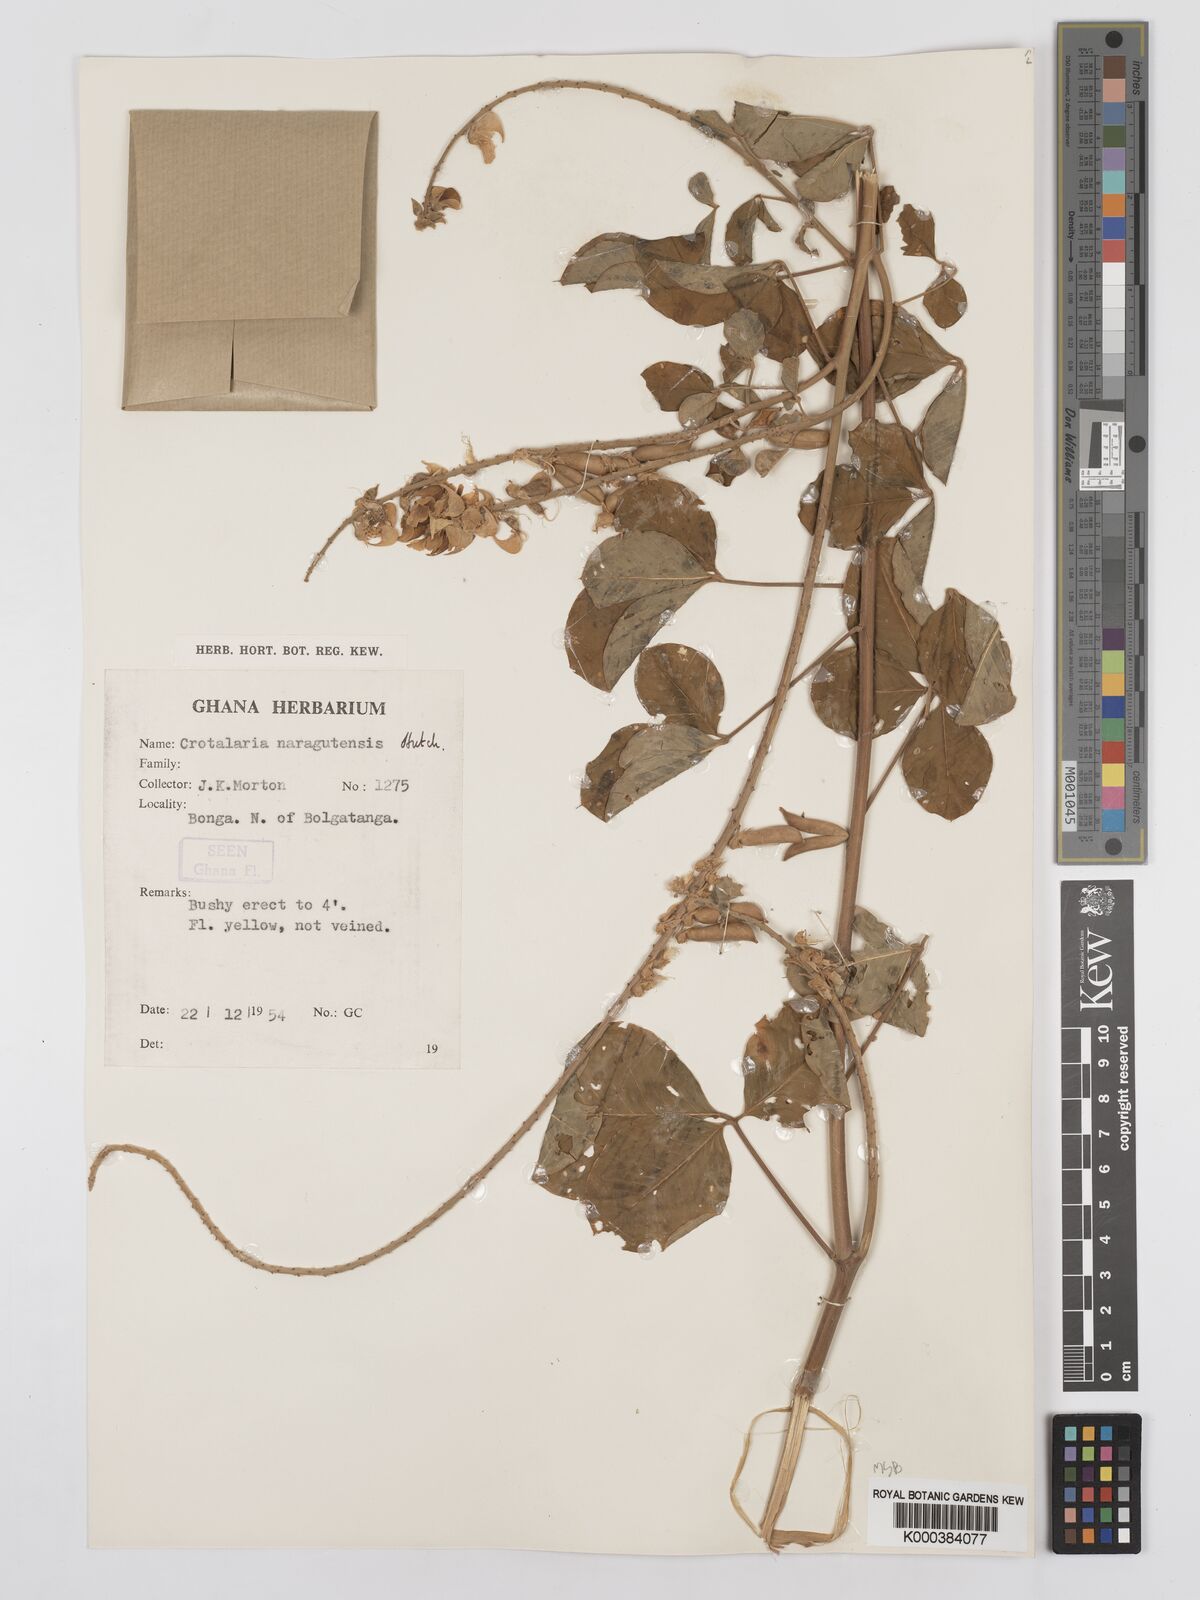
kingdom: Plantae
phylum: Tracheophyta
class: Magnoliopsida
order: Fabales
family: Fabaceae
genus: Crotalaria
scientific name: Crotalaria naragutensis
